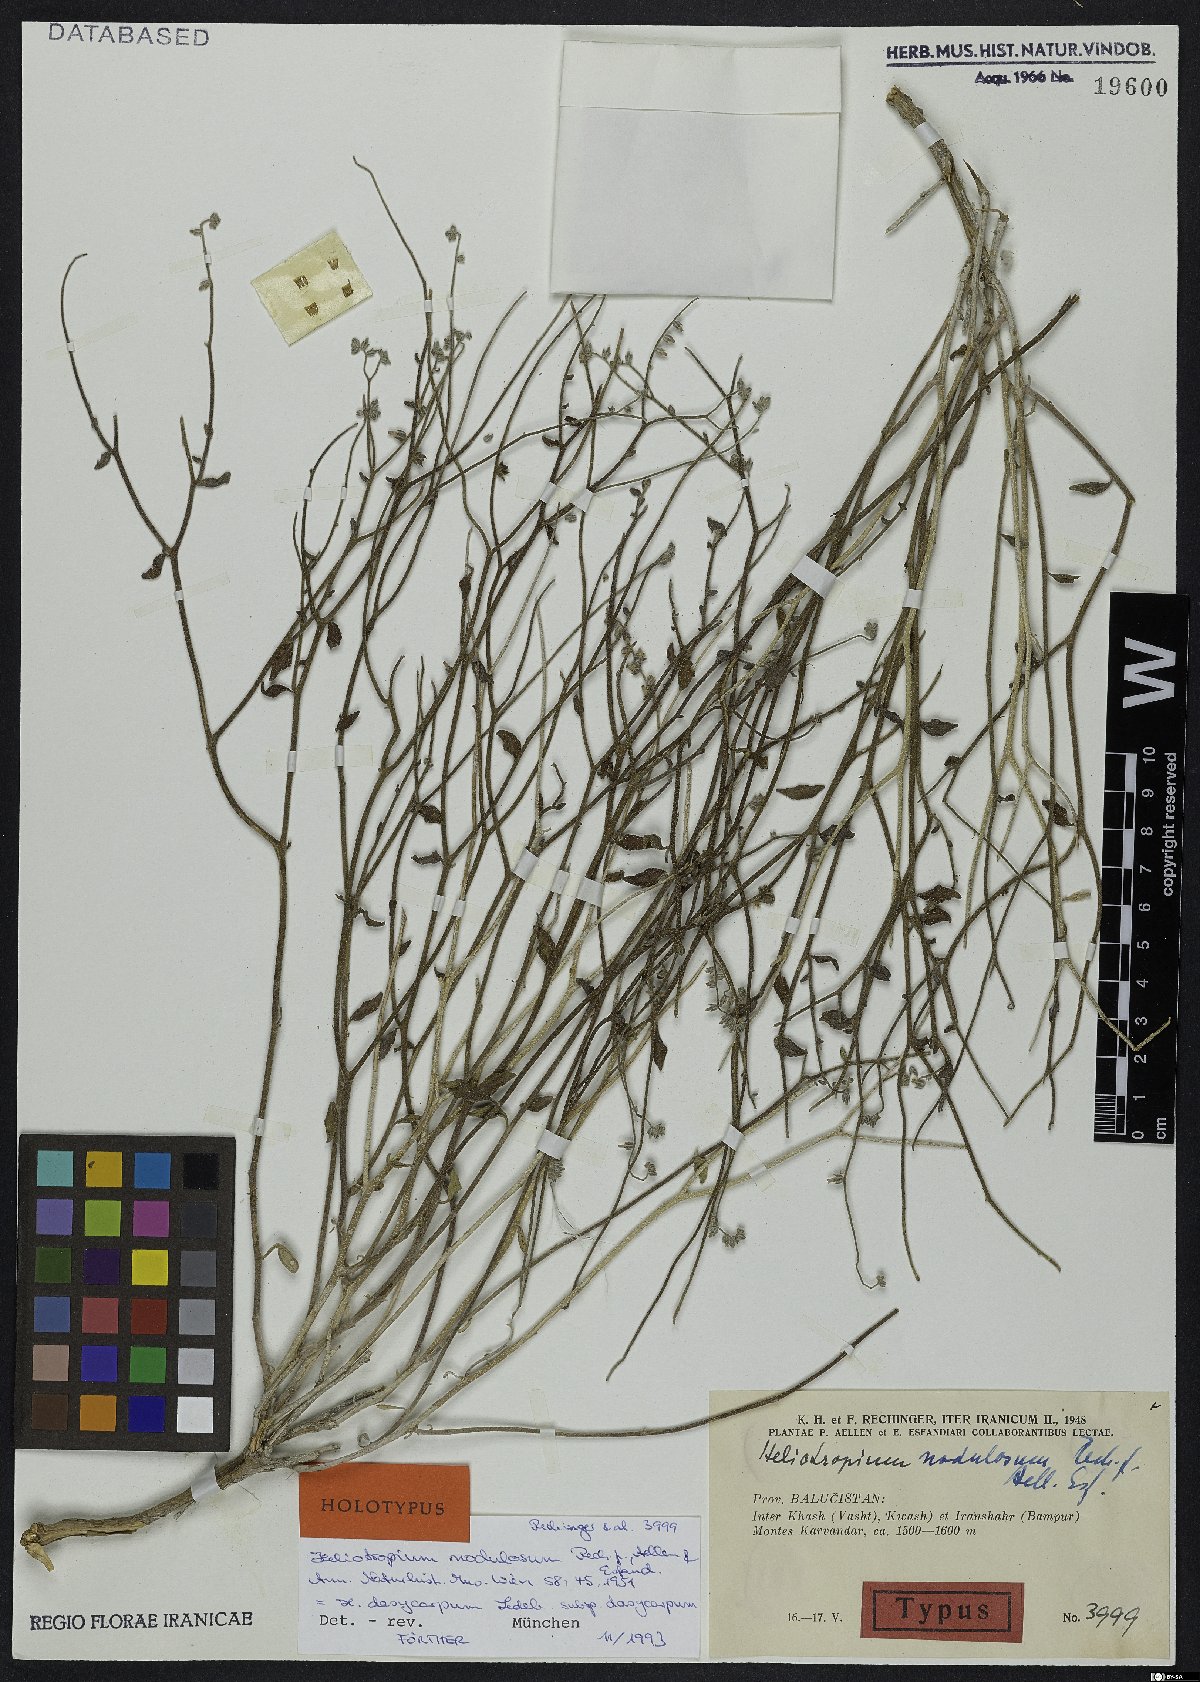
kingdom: Plantae
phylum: Tracheophyta
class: Magnoliopsida
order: Boraginales
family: Heliotropiaceae
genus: Heliotropium
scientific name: Heliotropium dasycarpum
